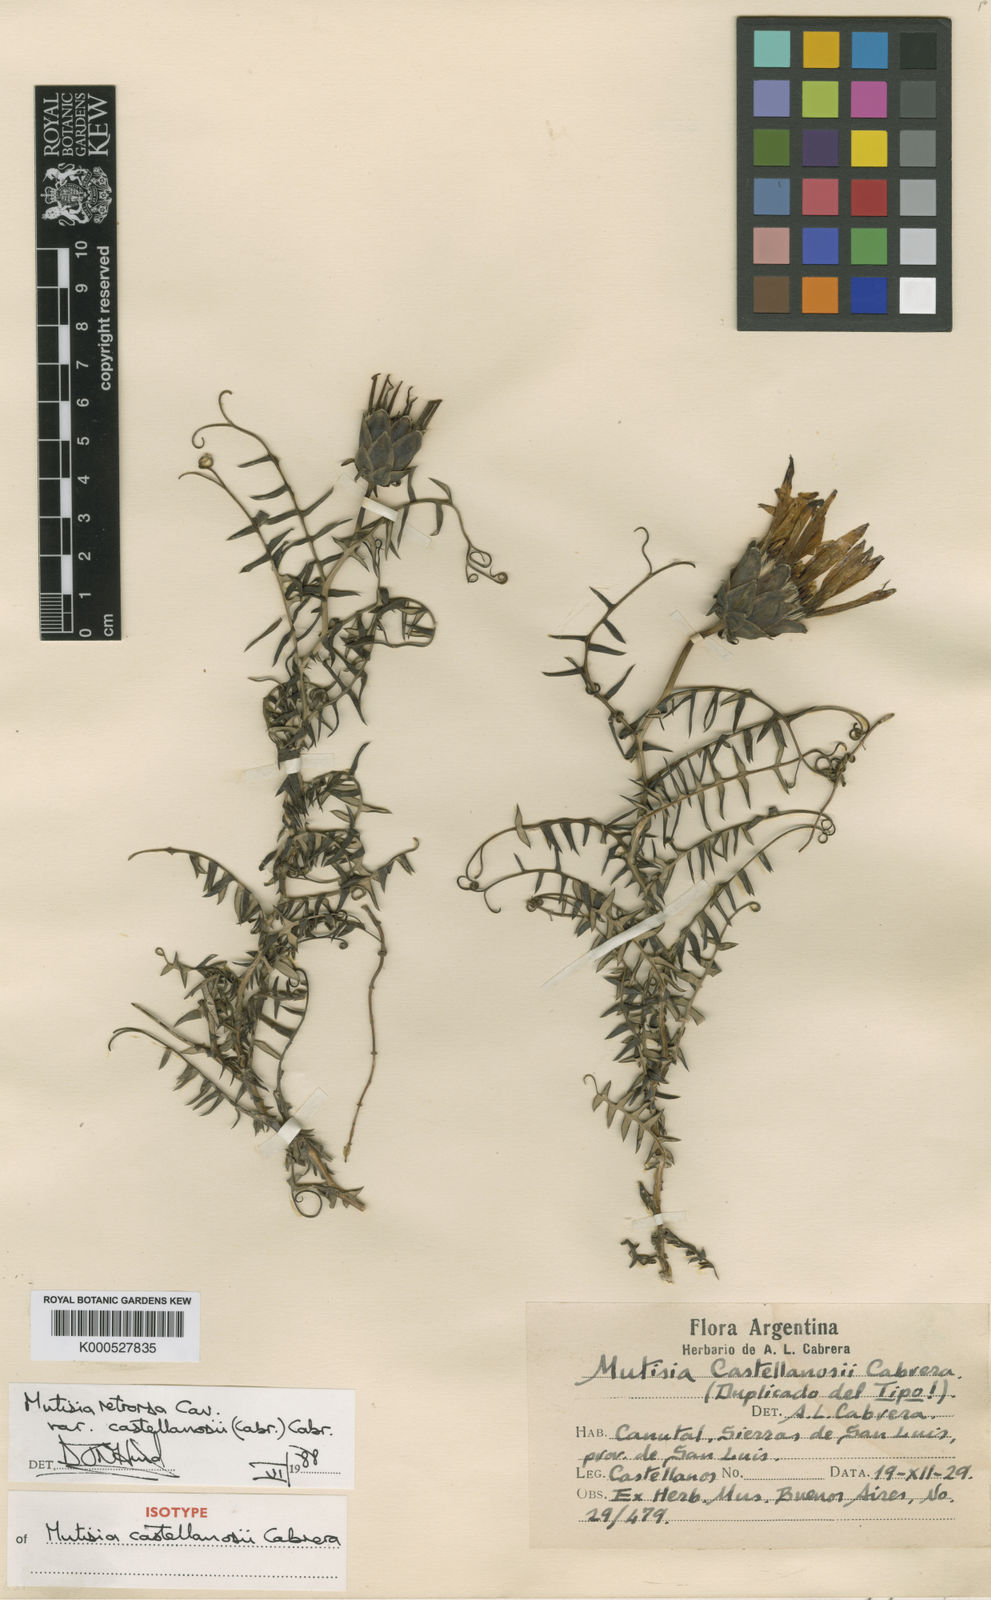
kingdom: Plantae
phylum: Tracheophyta
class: Magnoliopsida
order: Asterales
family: Asteraceae
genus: Mutisia
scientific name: Mutisia castellanosii
